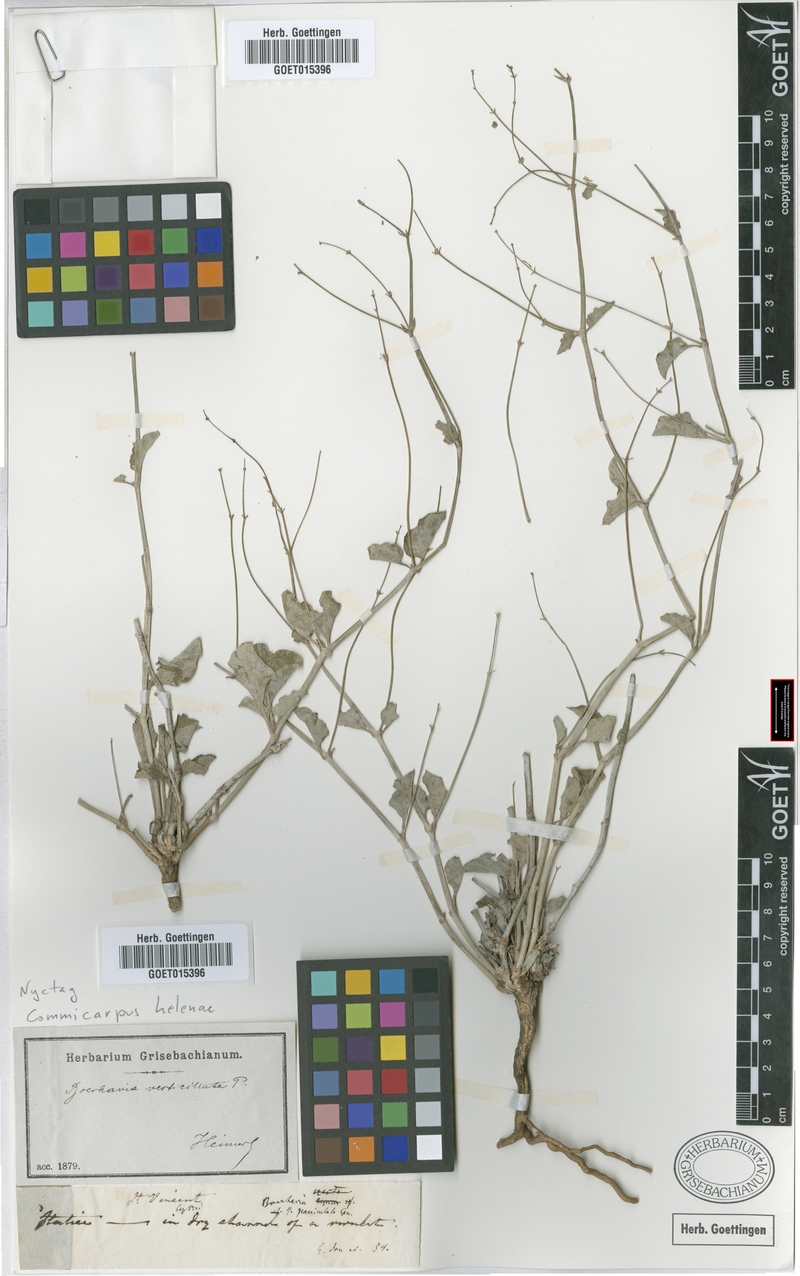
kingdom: Plantae
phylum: Tracheophyta
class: Magnoliopsida
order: Caryophyllales
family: Nyctaginaceae
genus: Commicarpus
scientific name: Commicarpus helenae
